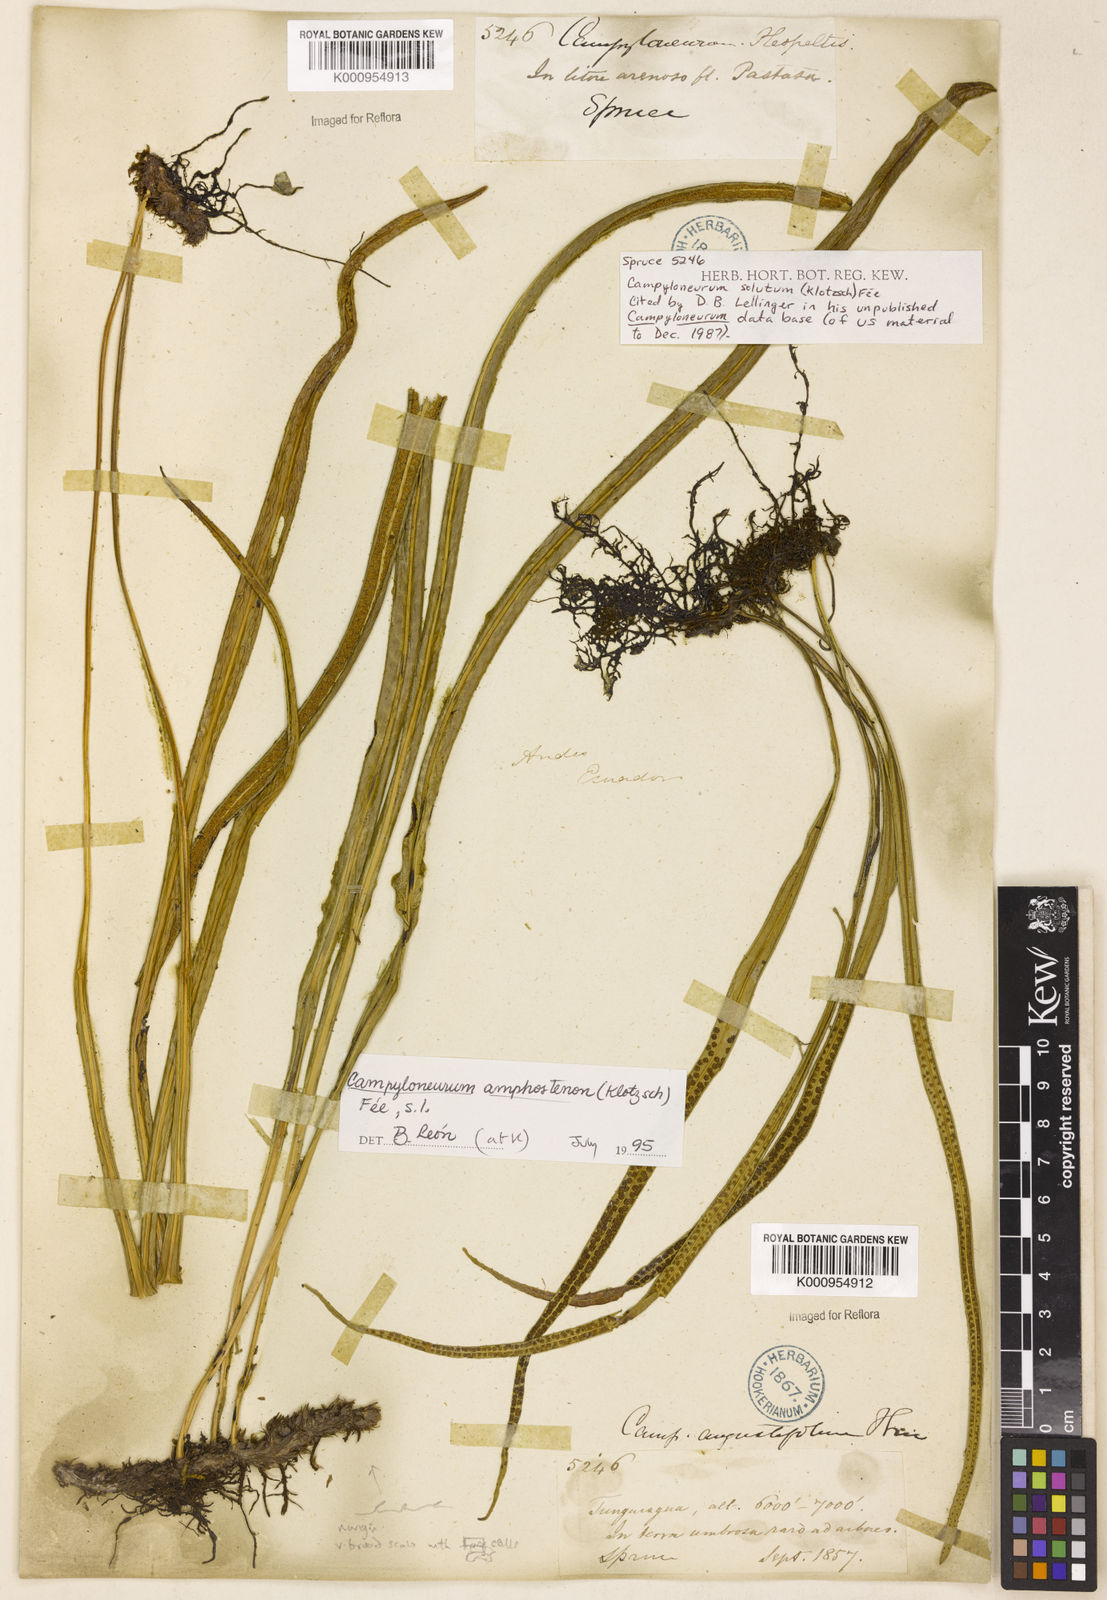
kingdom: Plantae
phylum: Tracheophyta
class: Polypodiopsida
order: Polypodiales
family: Polypodiaceae
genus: Campyloneurum
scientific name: Campyloneurum
